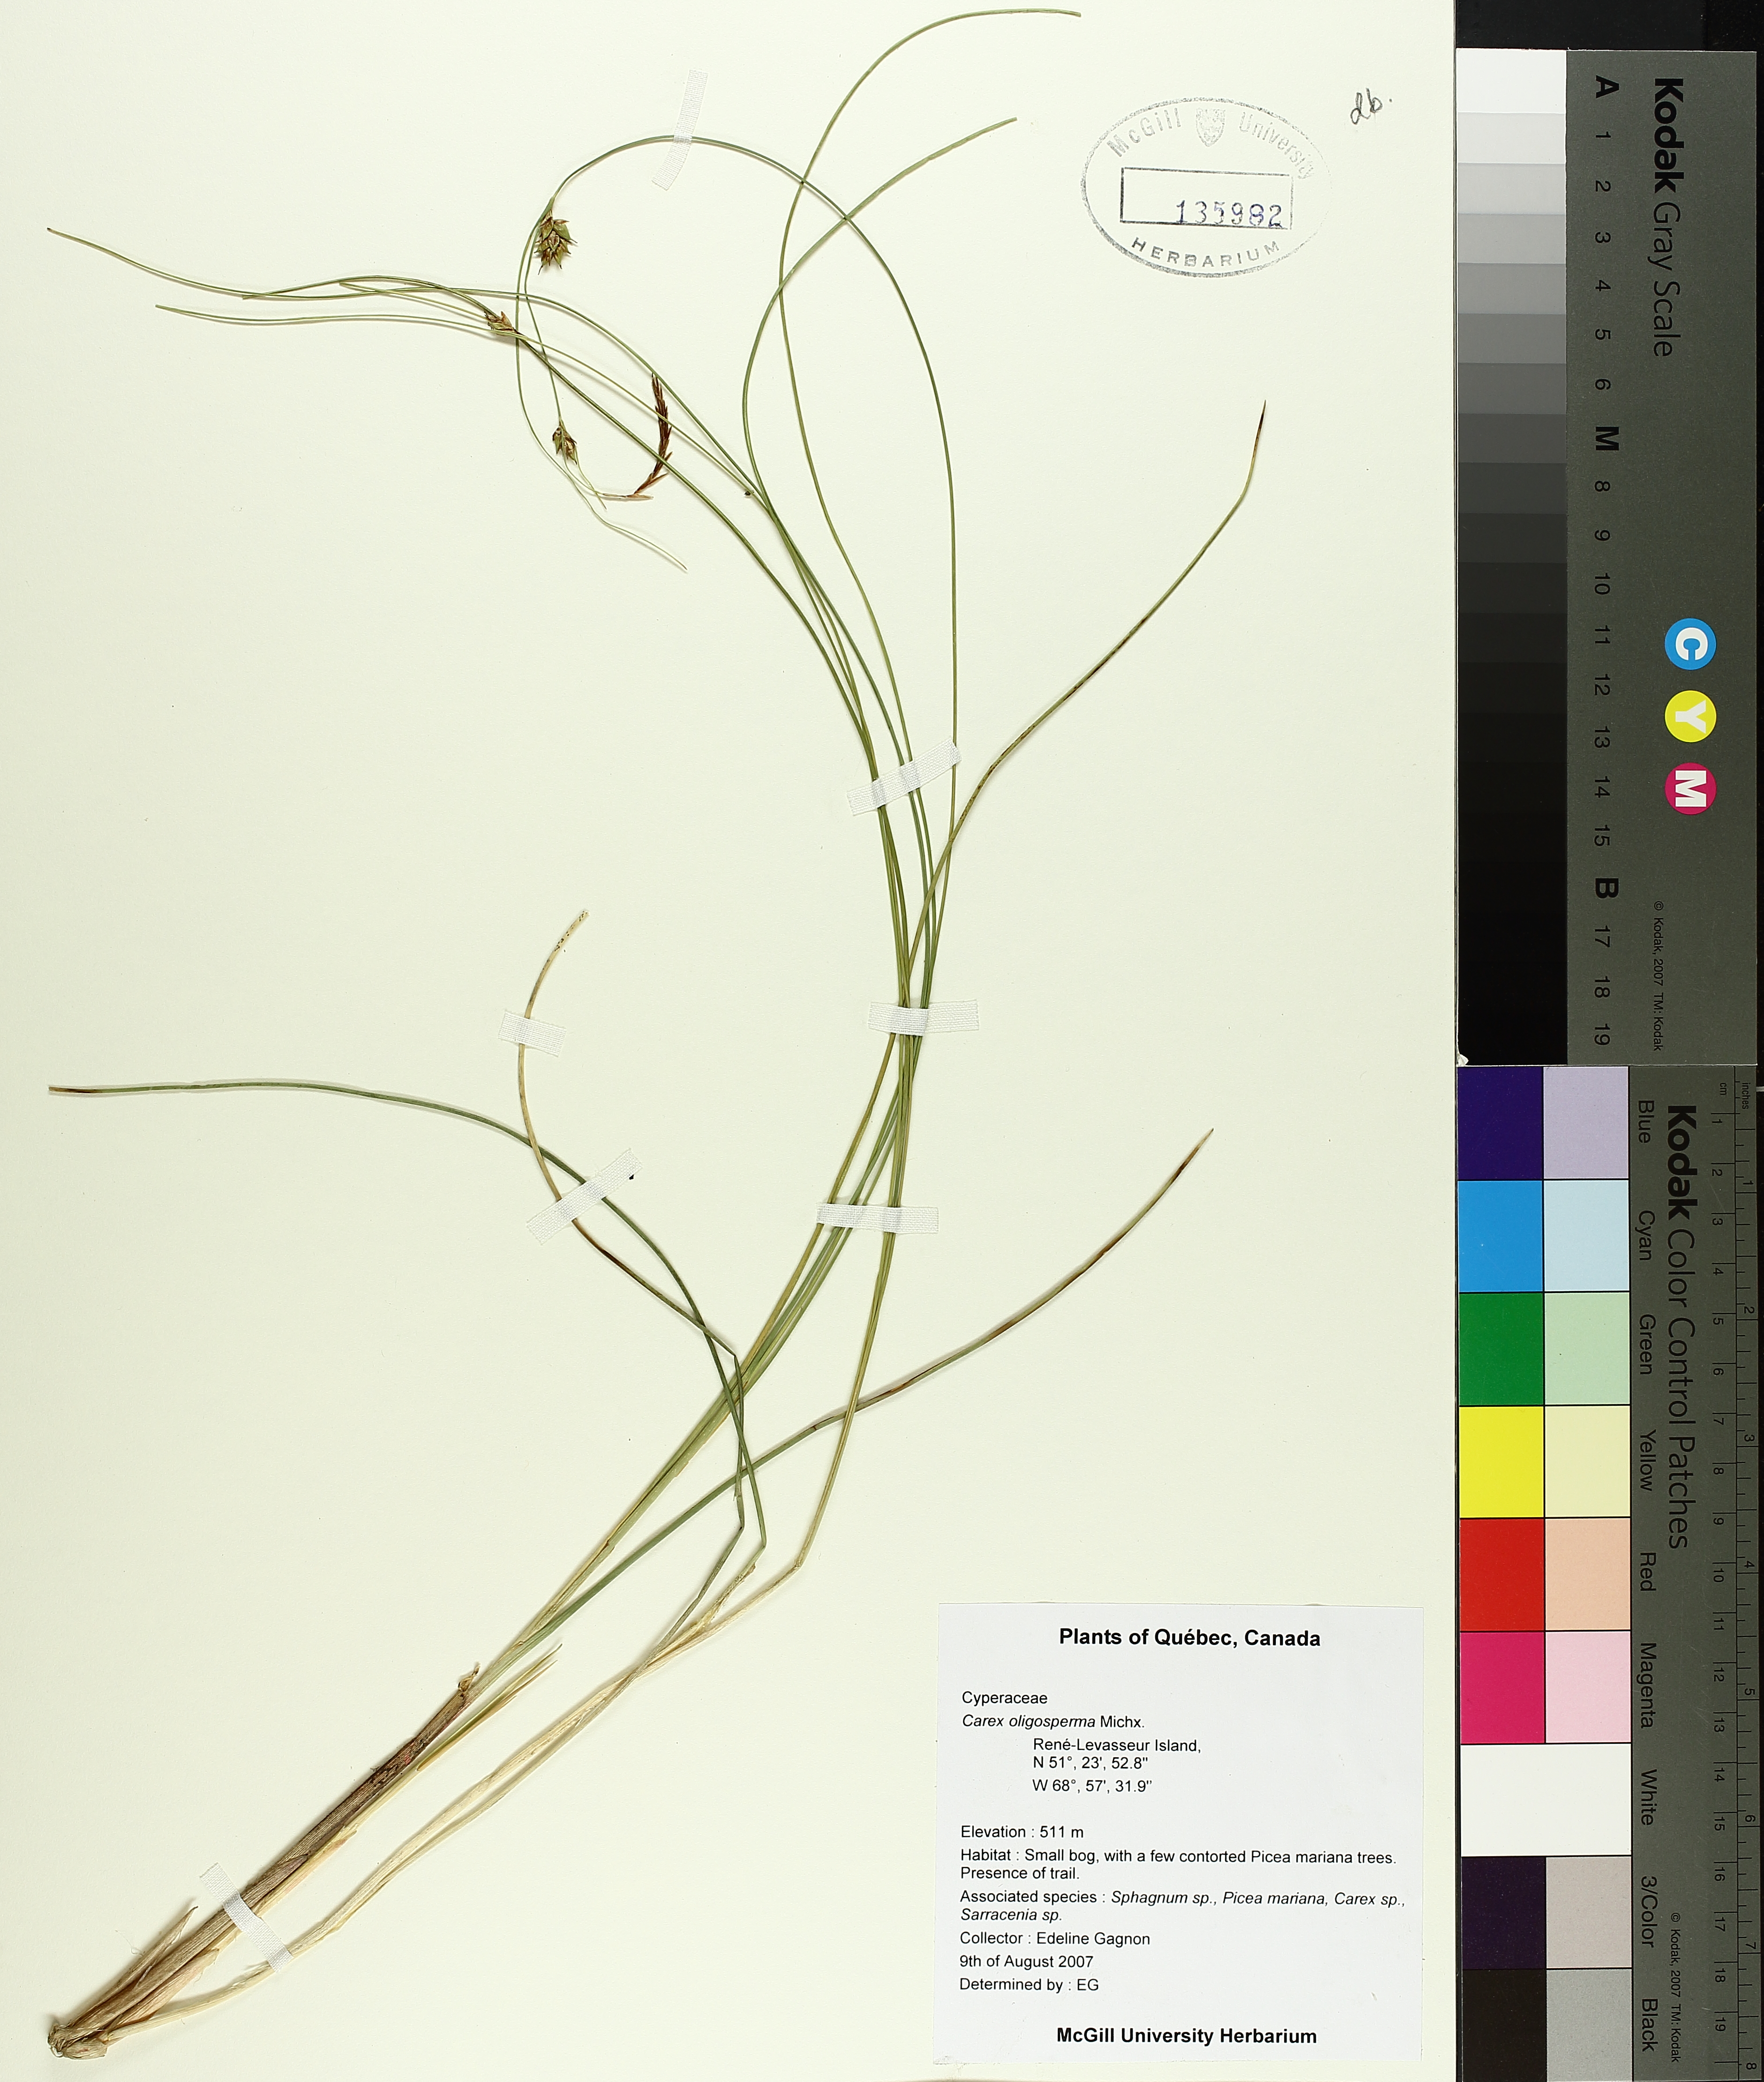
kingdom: Plantae
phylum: Tracheophyta
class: Liliopsida
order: Poales
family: Cyperaceae
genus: Carex
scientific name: Carex oligosperma
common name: Few-seed sedge
